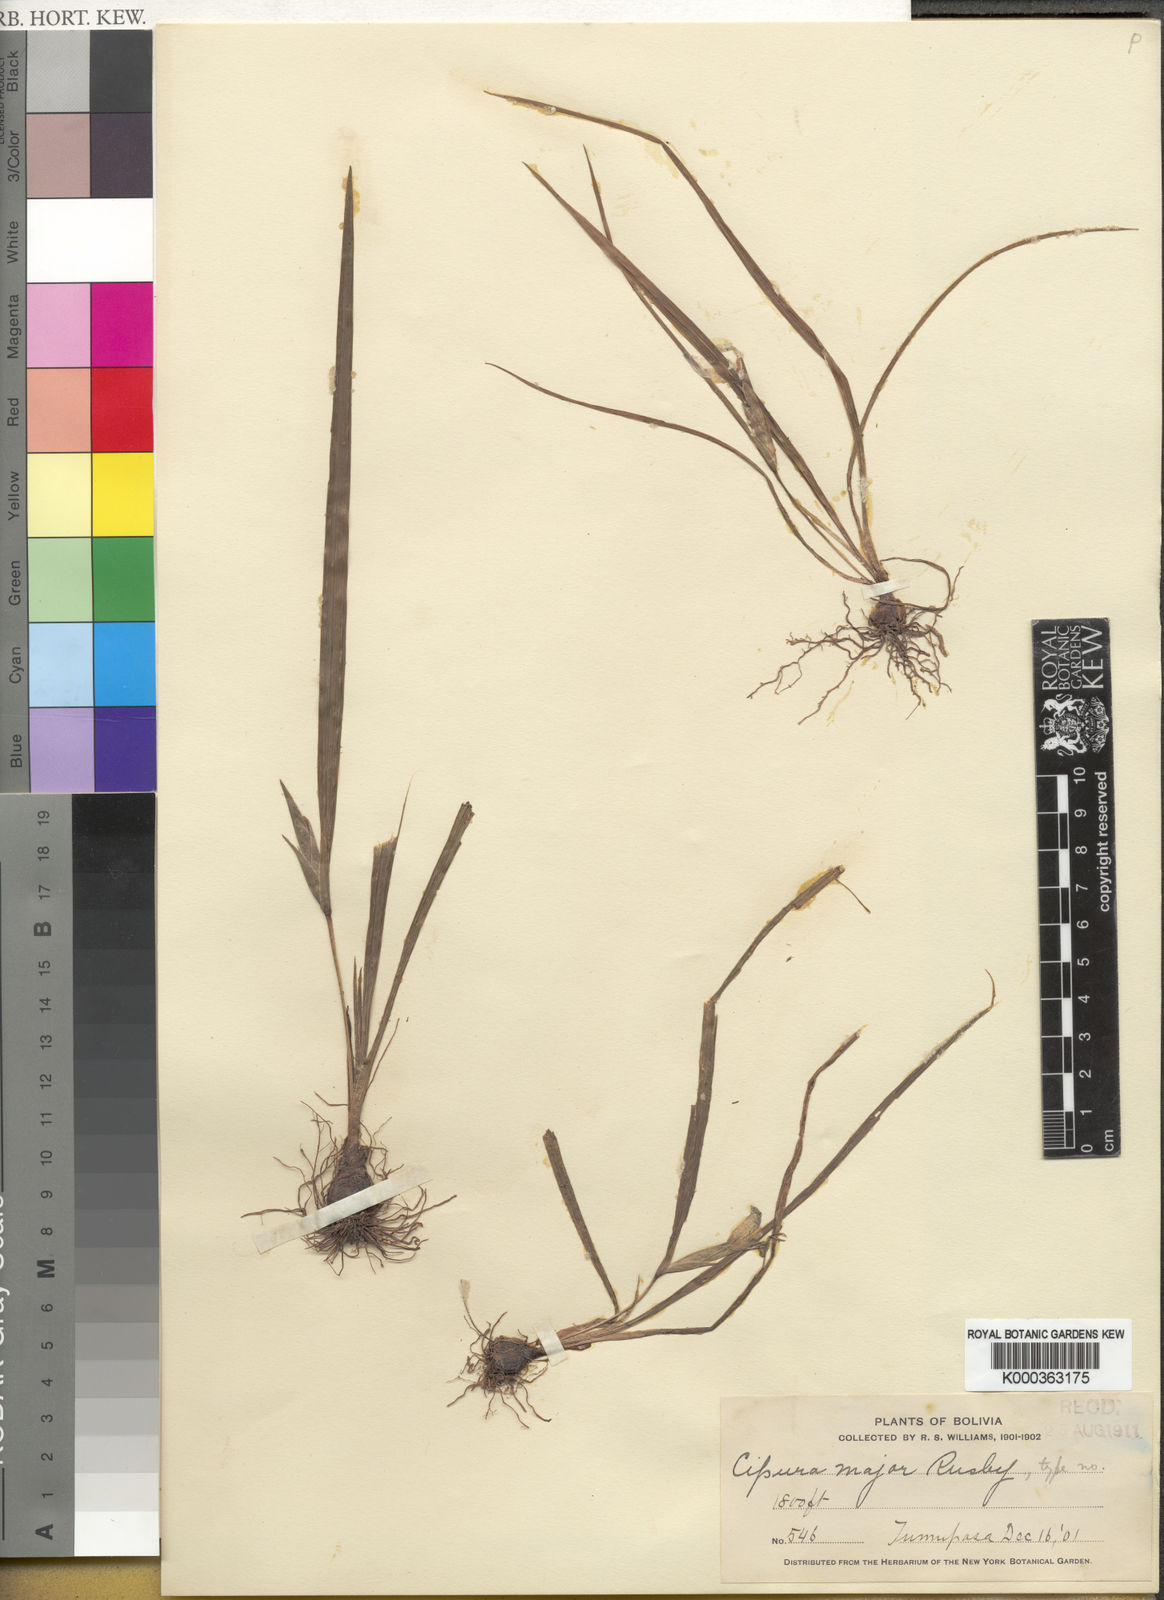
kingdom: Plantae
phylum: Tracheophyta
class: Liliopsida
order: Asparagales
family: Iridaceae
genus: Cipura
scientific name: Cipura paludosa
